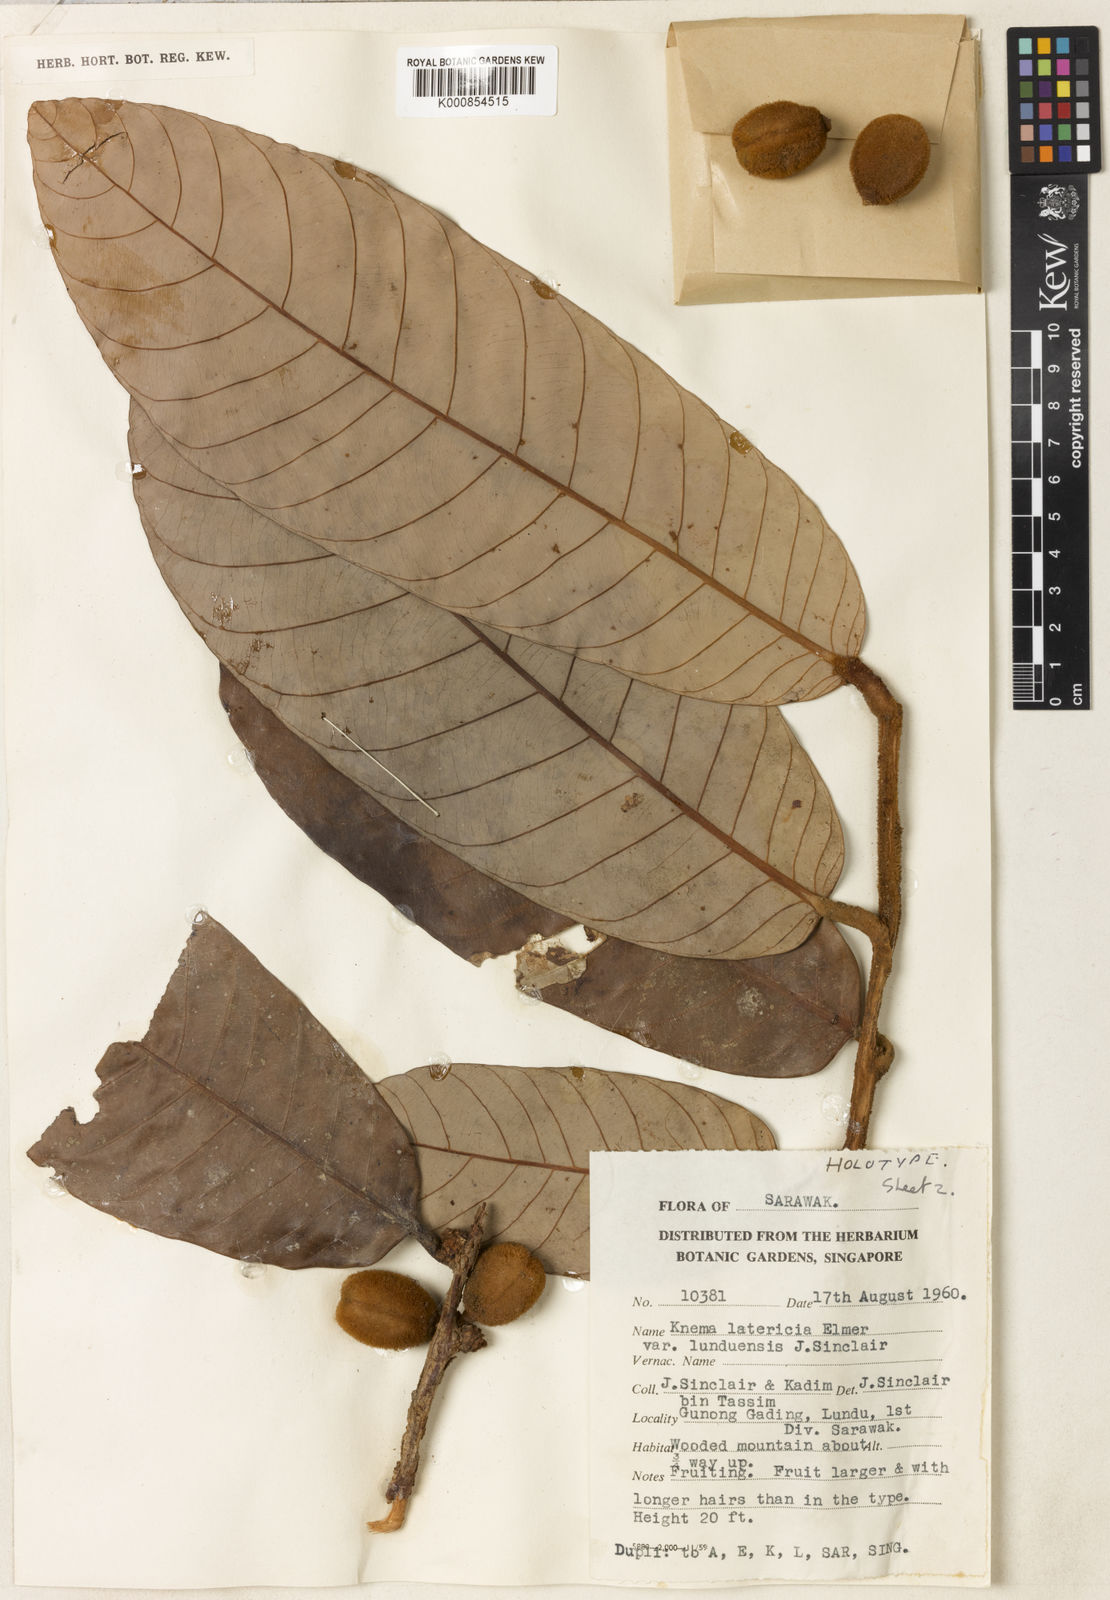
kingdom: Plantae
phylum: Tracheophyta
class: Magnoliopsida
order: Magnoliales
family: Myristicaceae
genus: Knema
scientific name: Knema latericia
